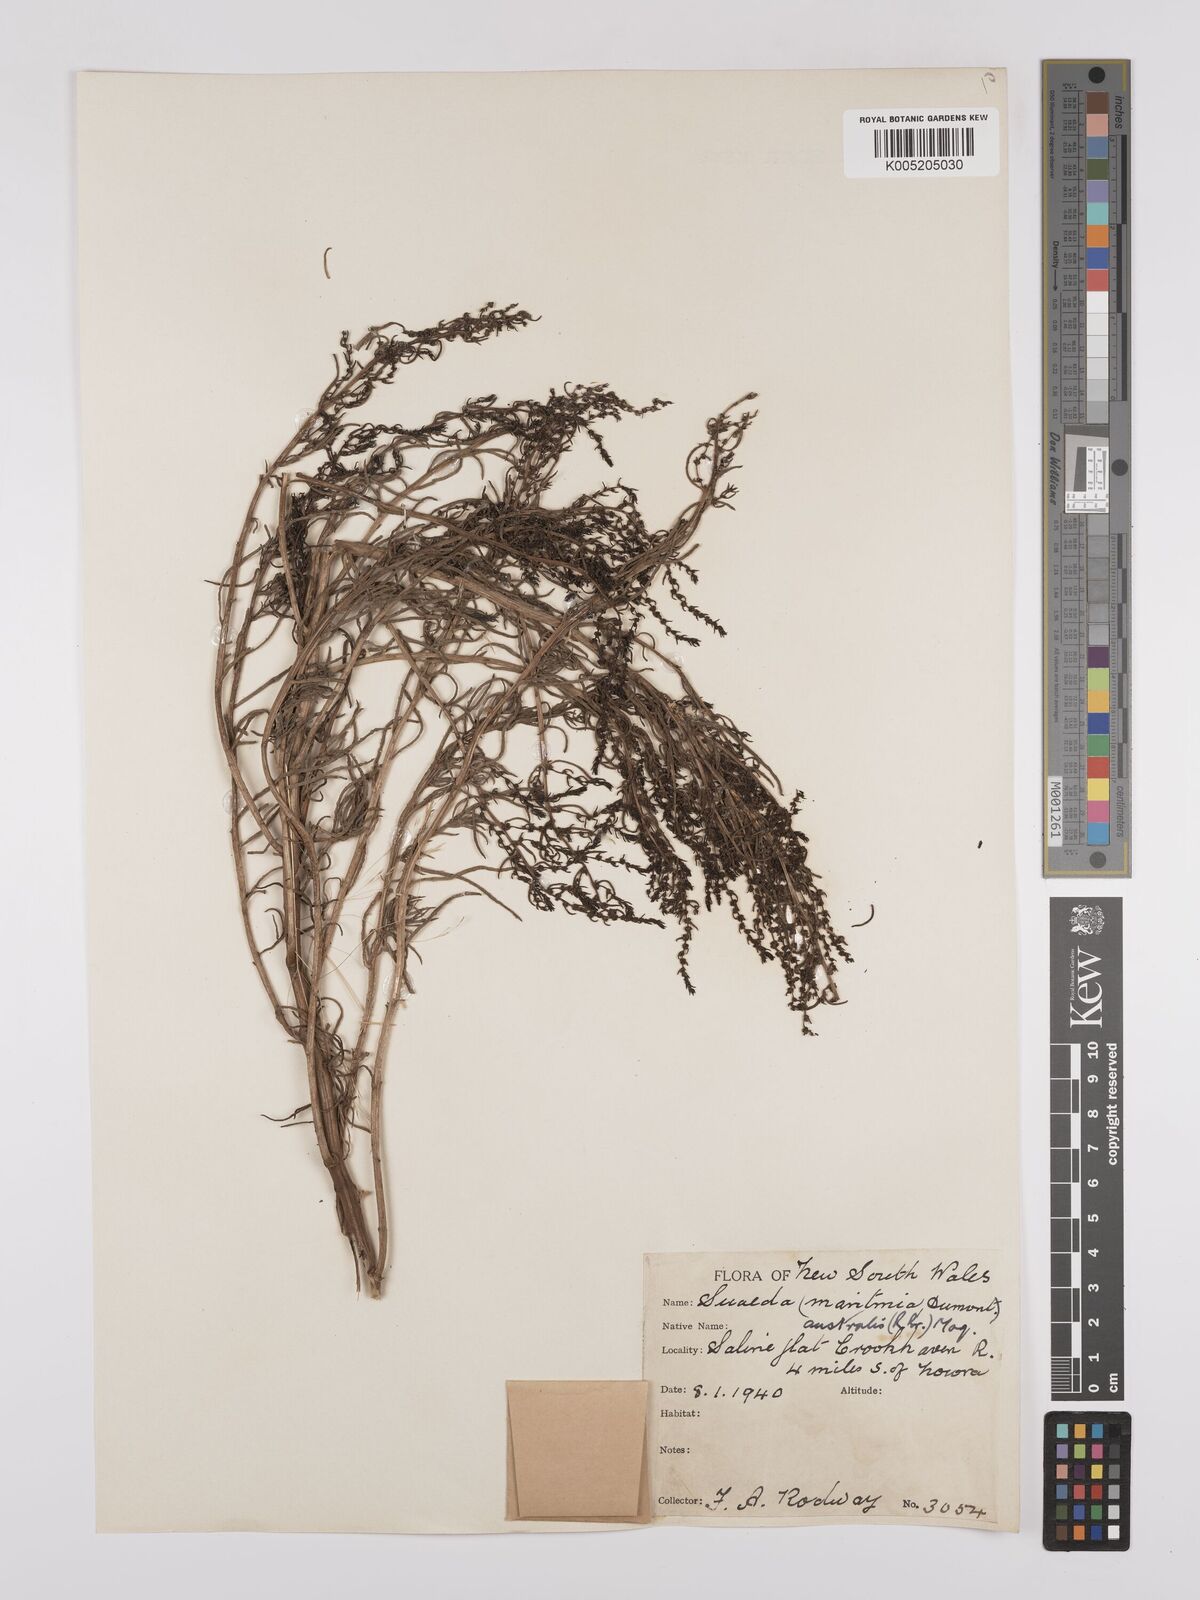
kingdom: Plantae
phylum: Tracheophyta
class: Magnoliopsida
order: Caryophyllales
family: Amaranthaceae
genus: Suaeda
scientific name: Suaeda australis
